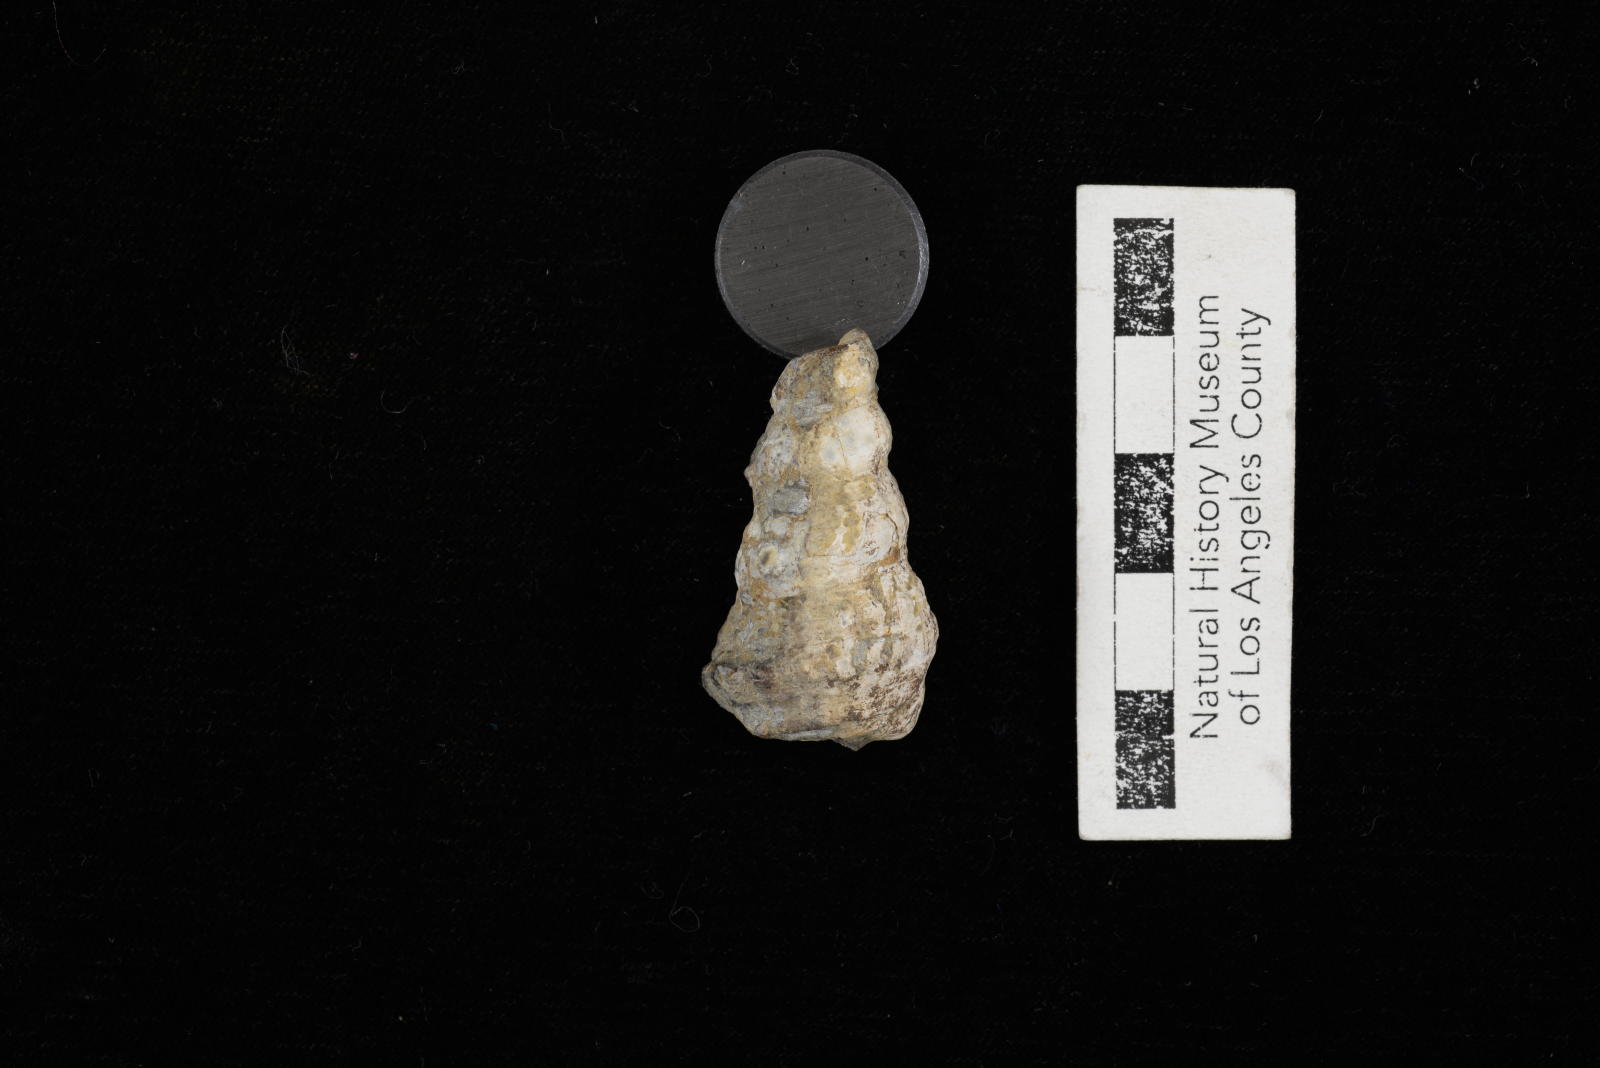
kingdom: Animalia
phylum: Mollusca
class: Gastropoda
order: Littorinimorpha
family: Aporrhaidae
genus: Anchura
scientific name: Anchura phaba
